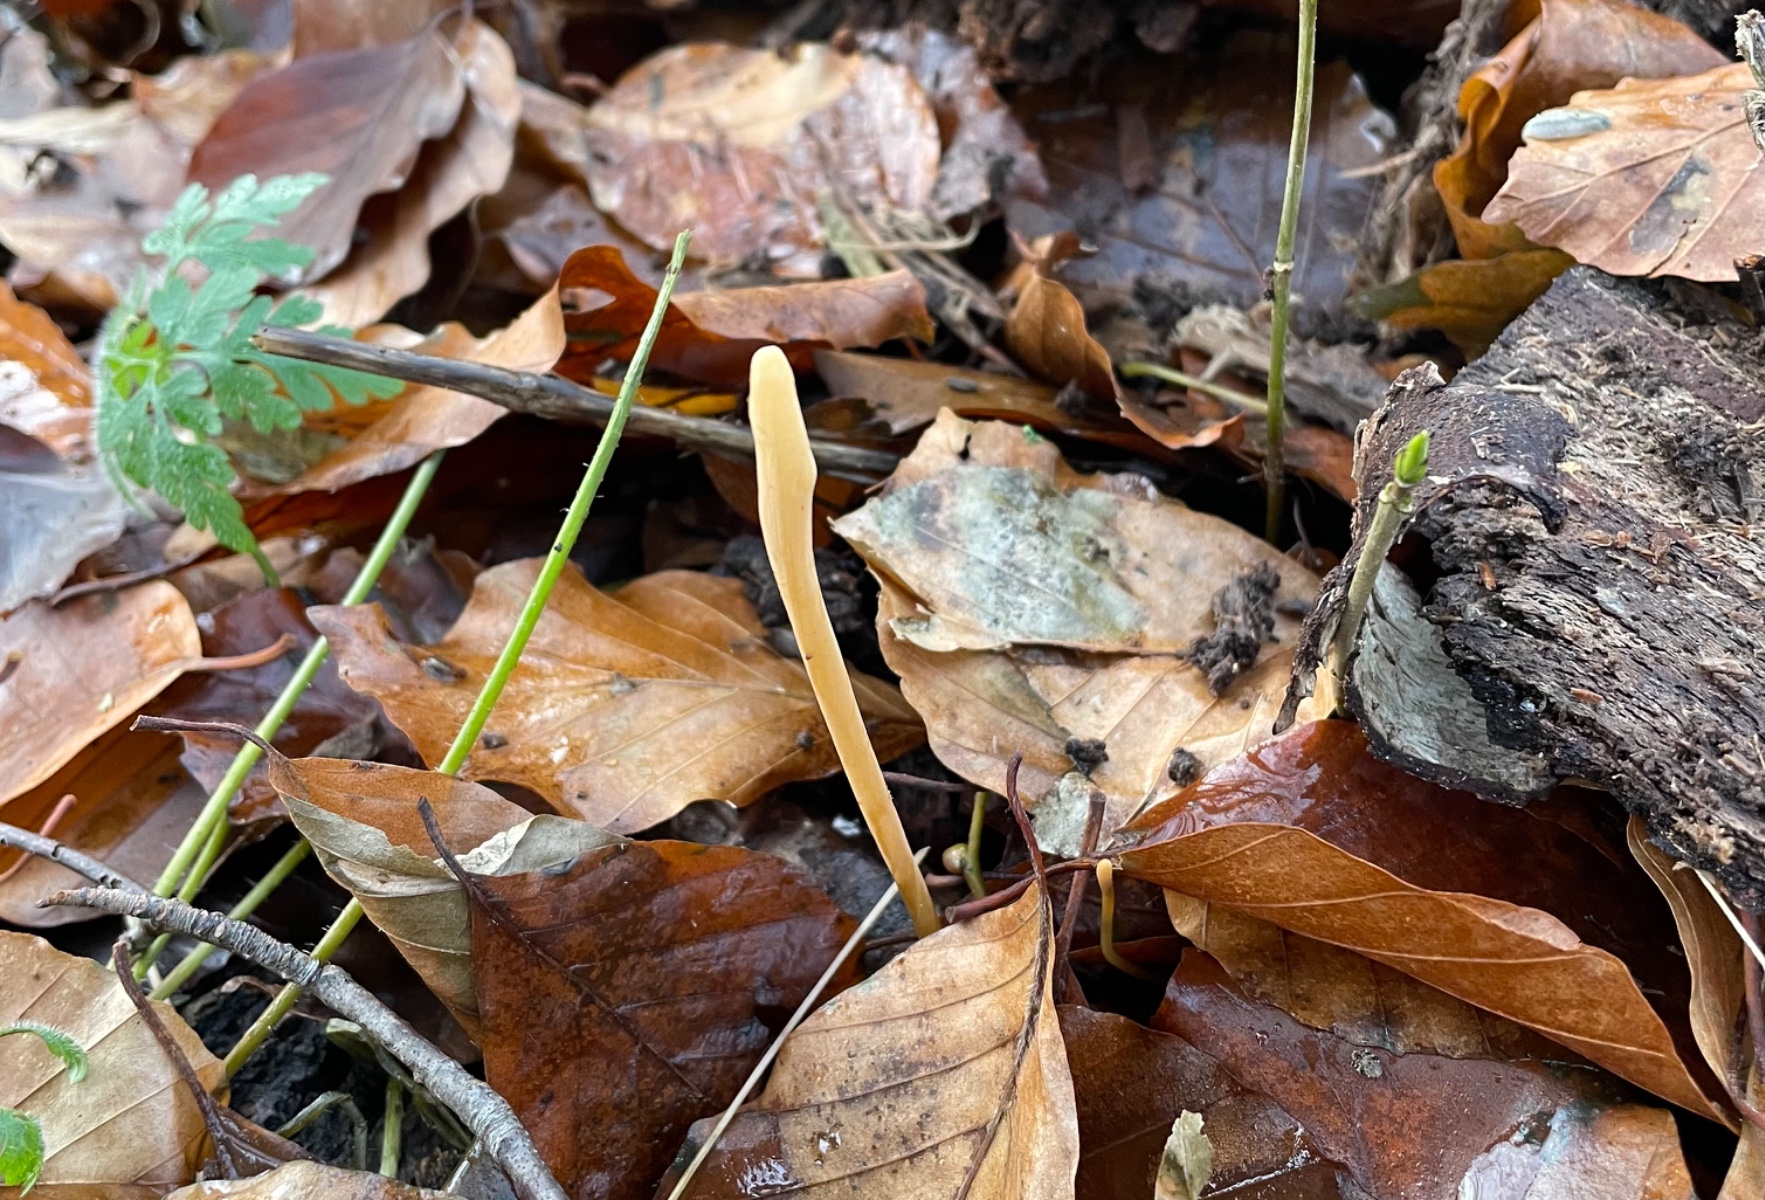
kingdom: Fungi
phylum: Basidiomycota
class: Agaricomycetes
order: Agaricales
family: Typhulaceae
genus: Typhula
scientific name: Typhula fistulosa
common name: pibet rørkølle
